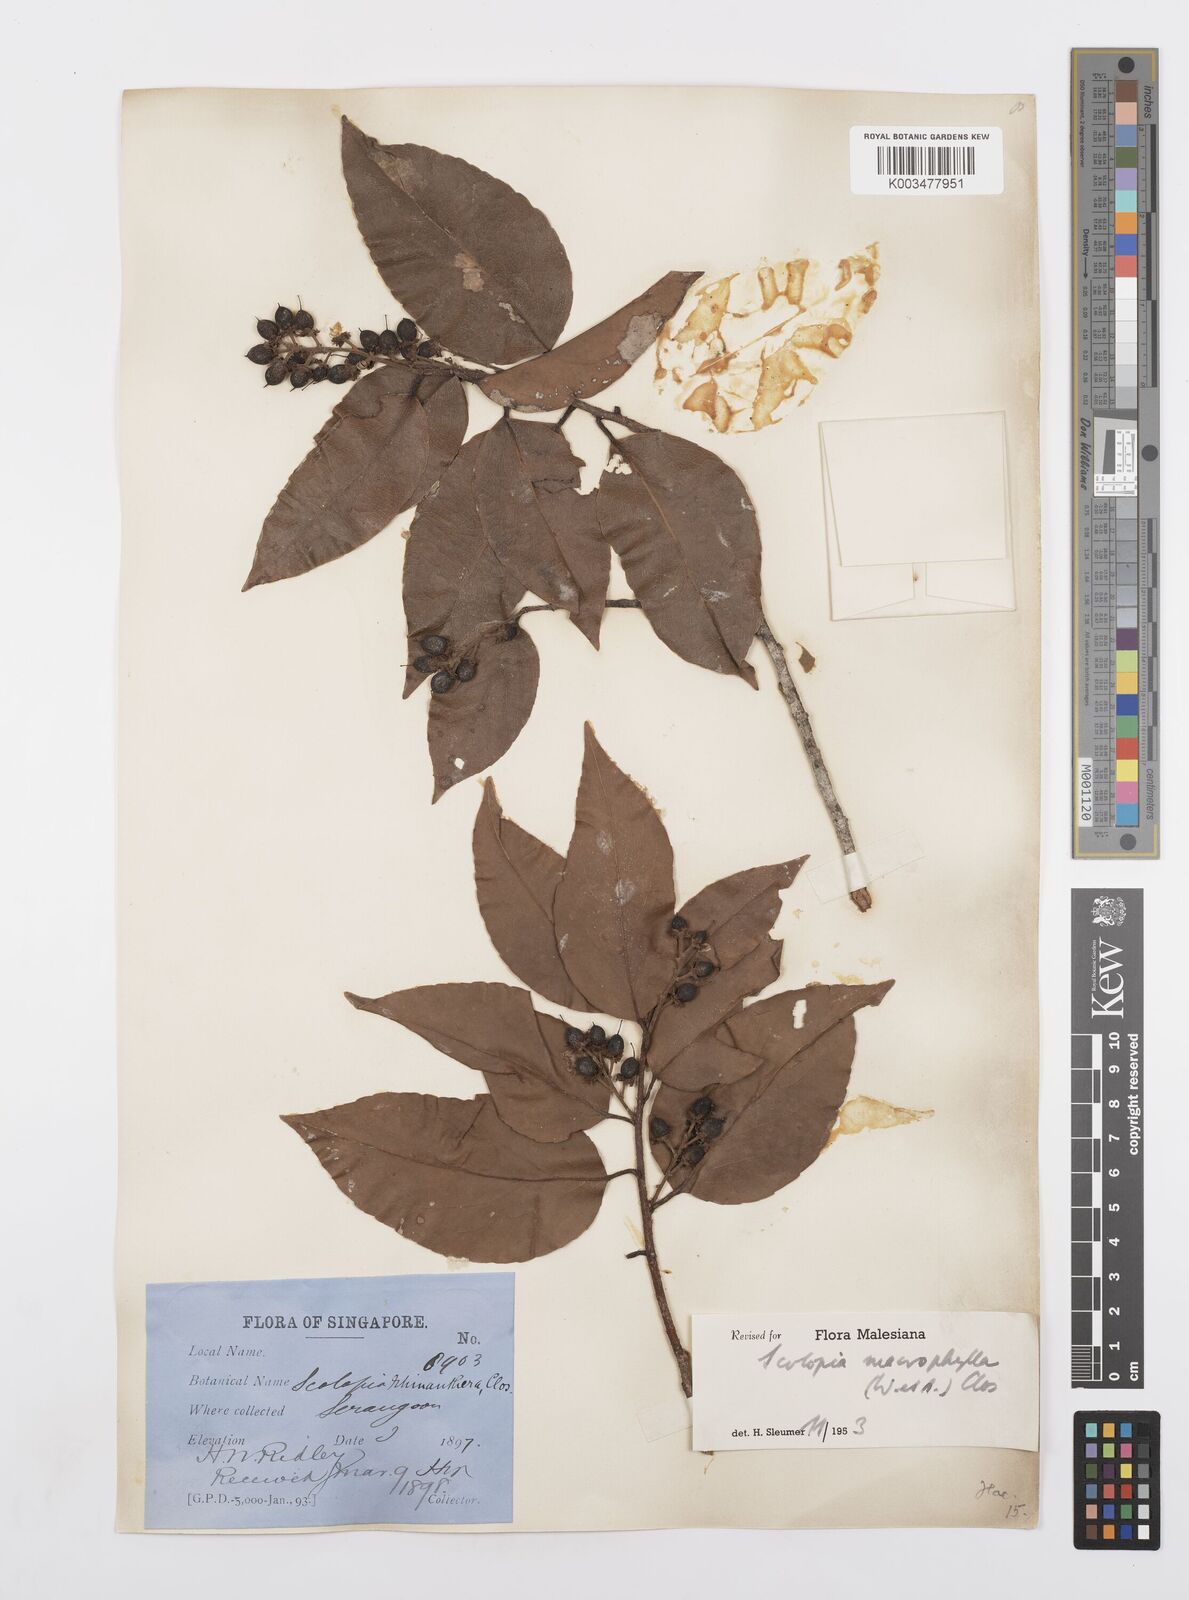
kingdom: Plantae
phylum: Tracheophyta
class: Magnoliopsida
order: Malpighiales
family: Salicaceae
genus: Scolopia
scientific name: Scolopia macrophylla
